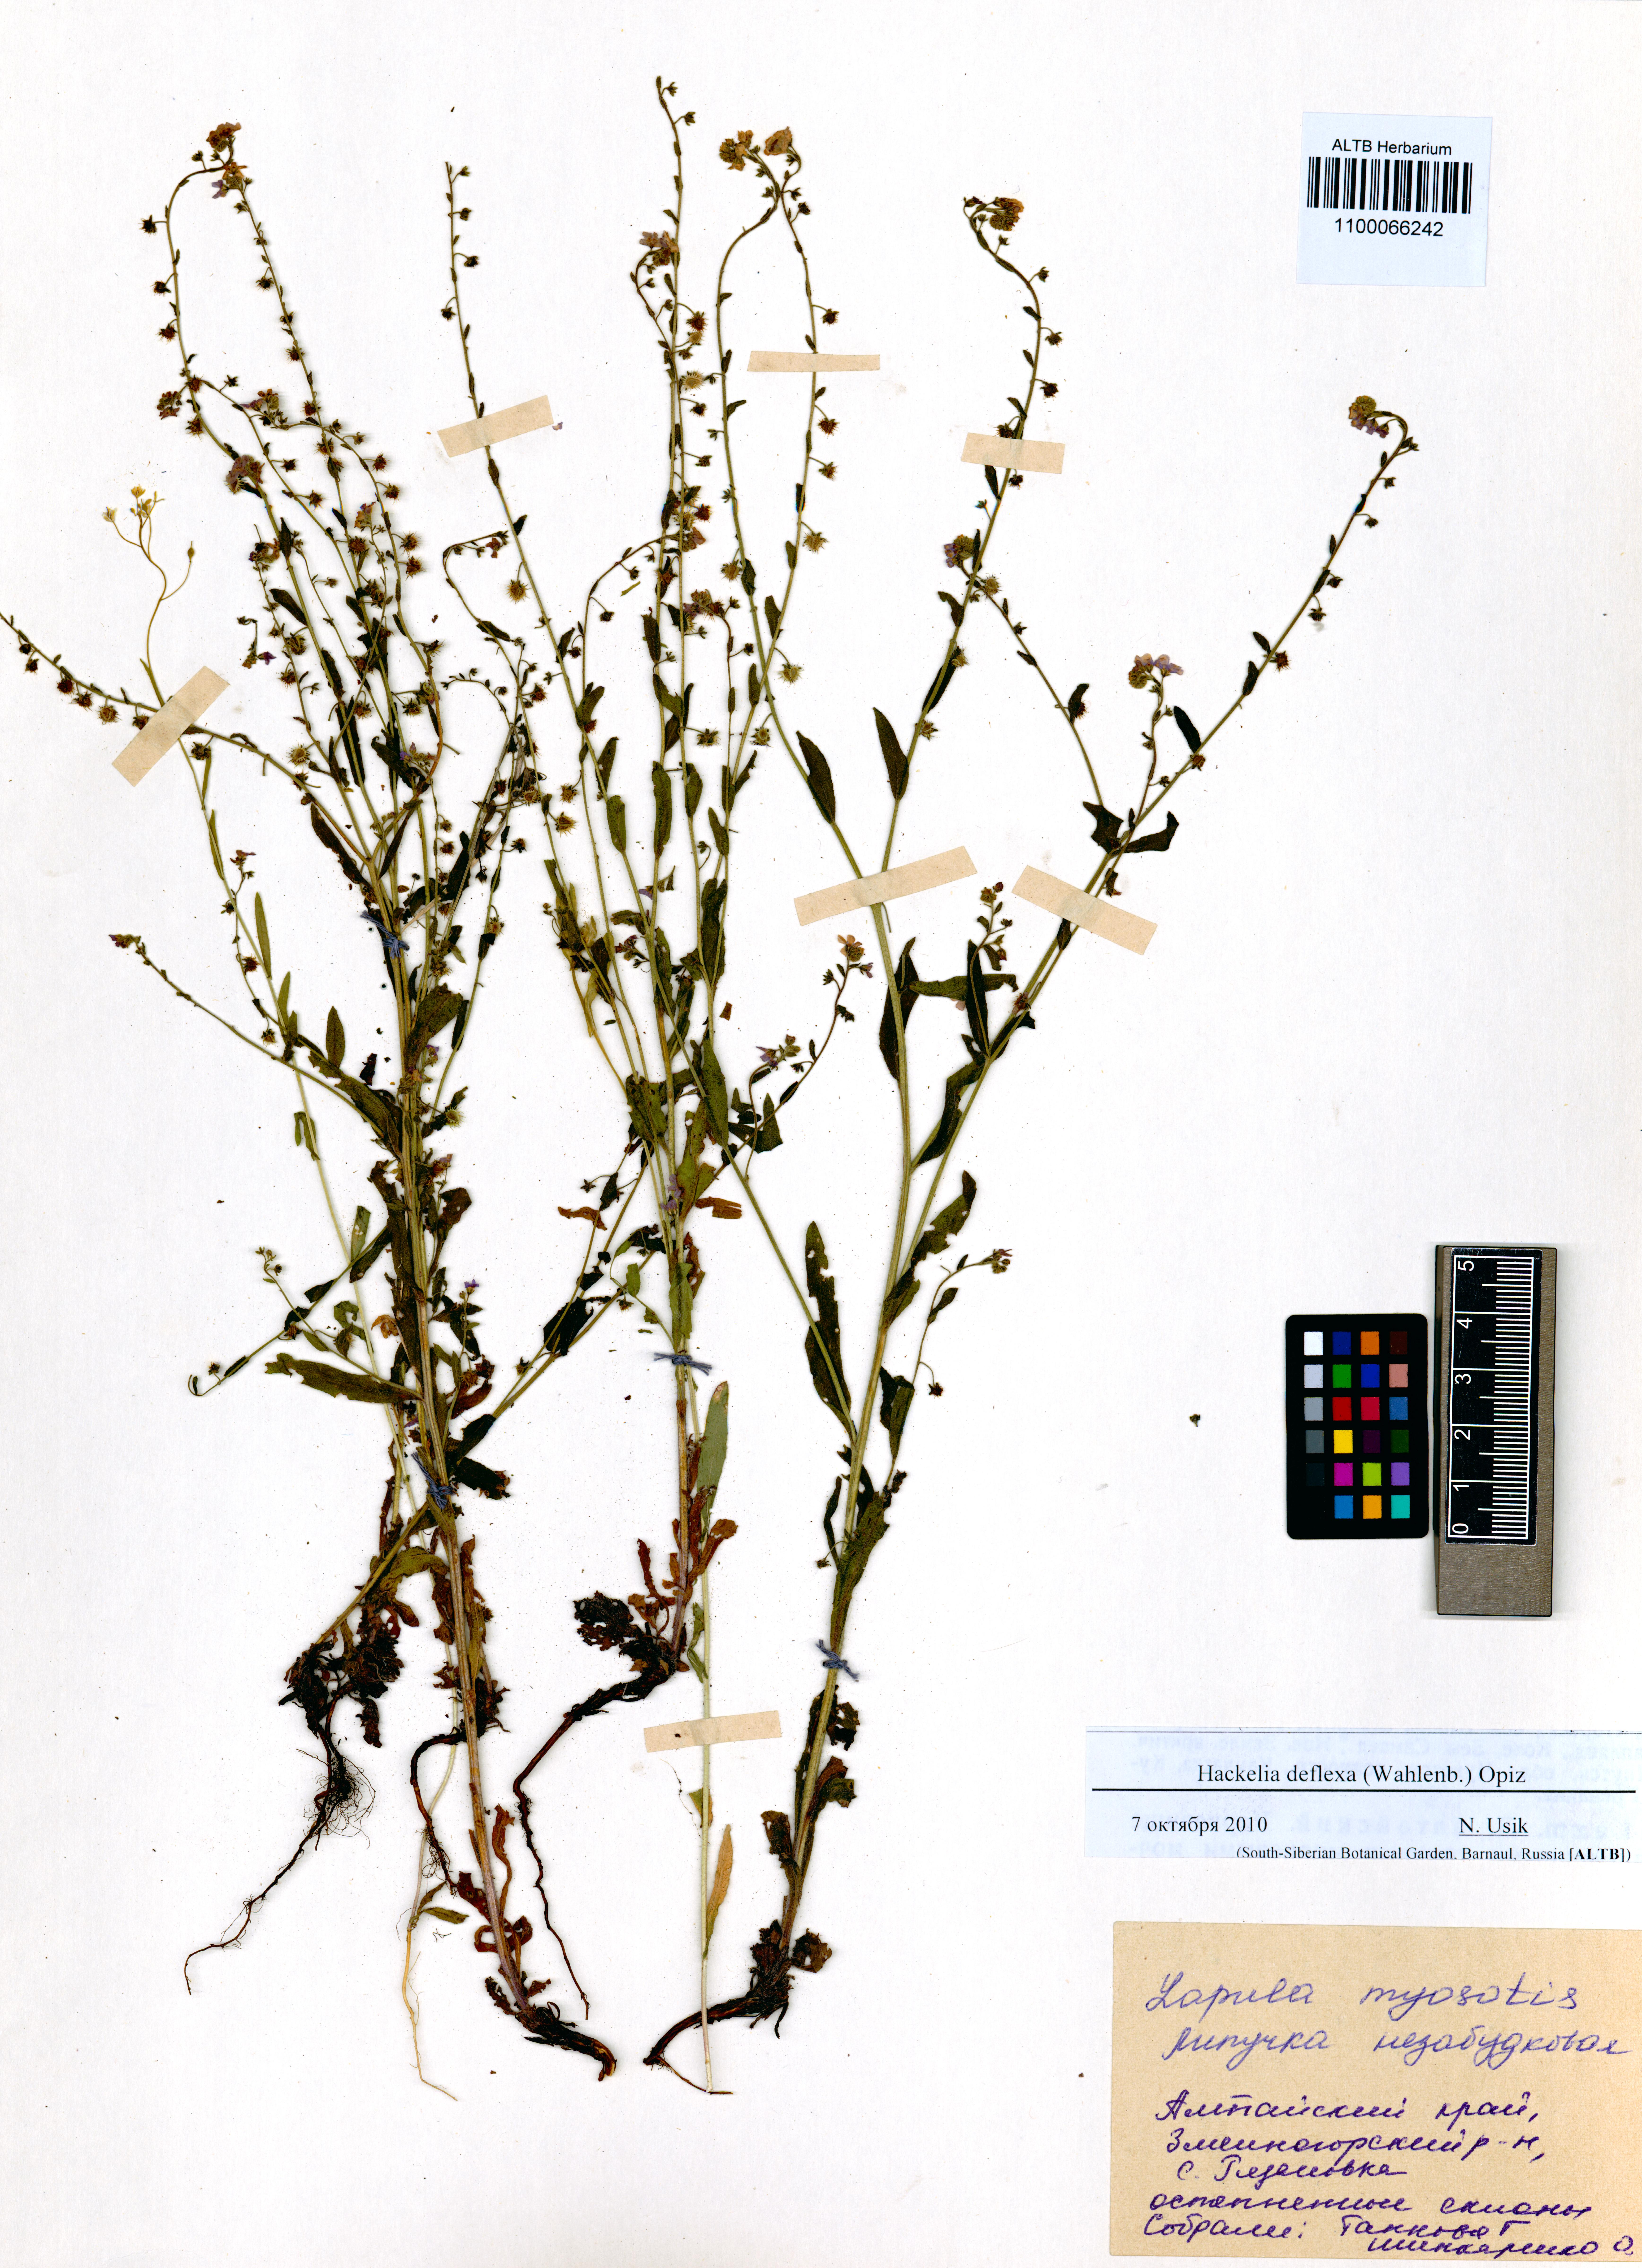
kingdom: Plantae
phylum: Tracheophyta
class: Magnoliopsida
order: Boraginales
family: Boraginaceae
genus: Hackelia
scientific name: Hackelia deflexa
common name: Nodding stickseed
